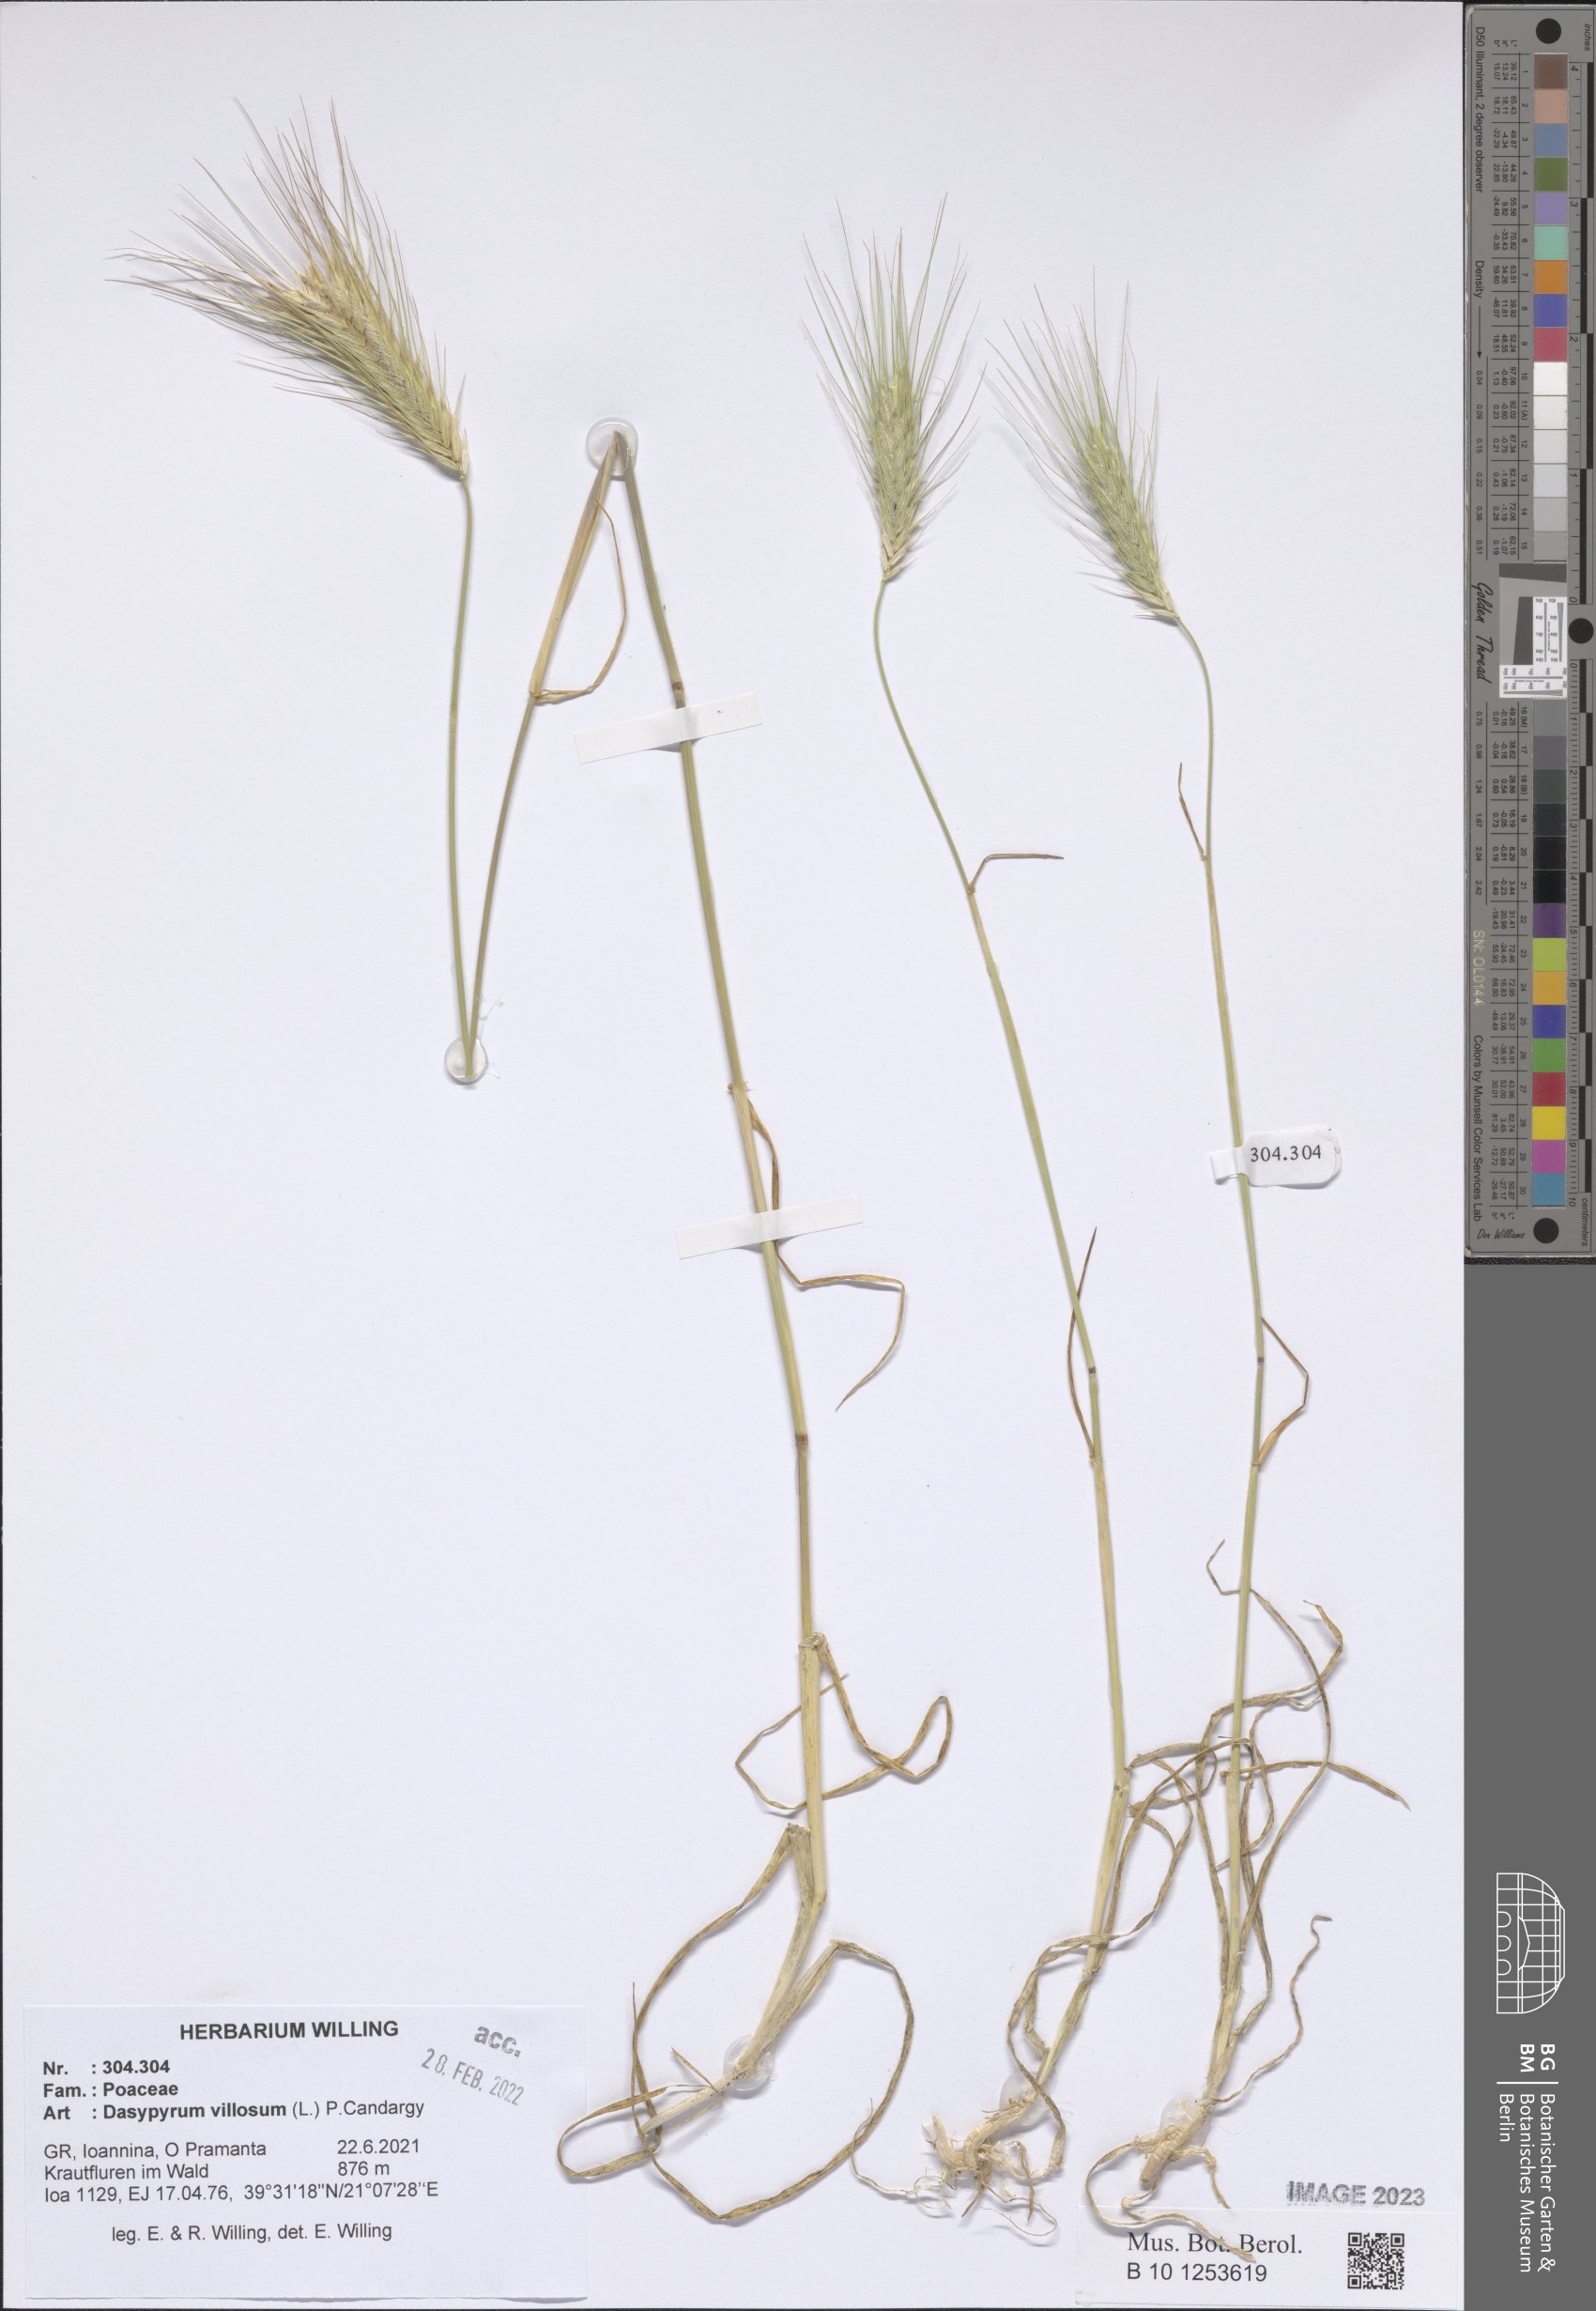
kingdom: Plantae
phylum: Tracheophyta
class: Liliopsida
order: Poales
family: Poaceae
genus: Dasypyrum
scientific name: Dasypyrum villosum
